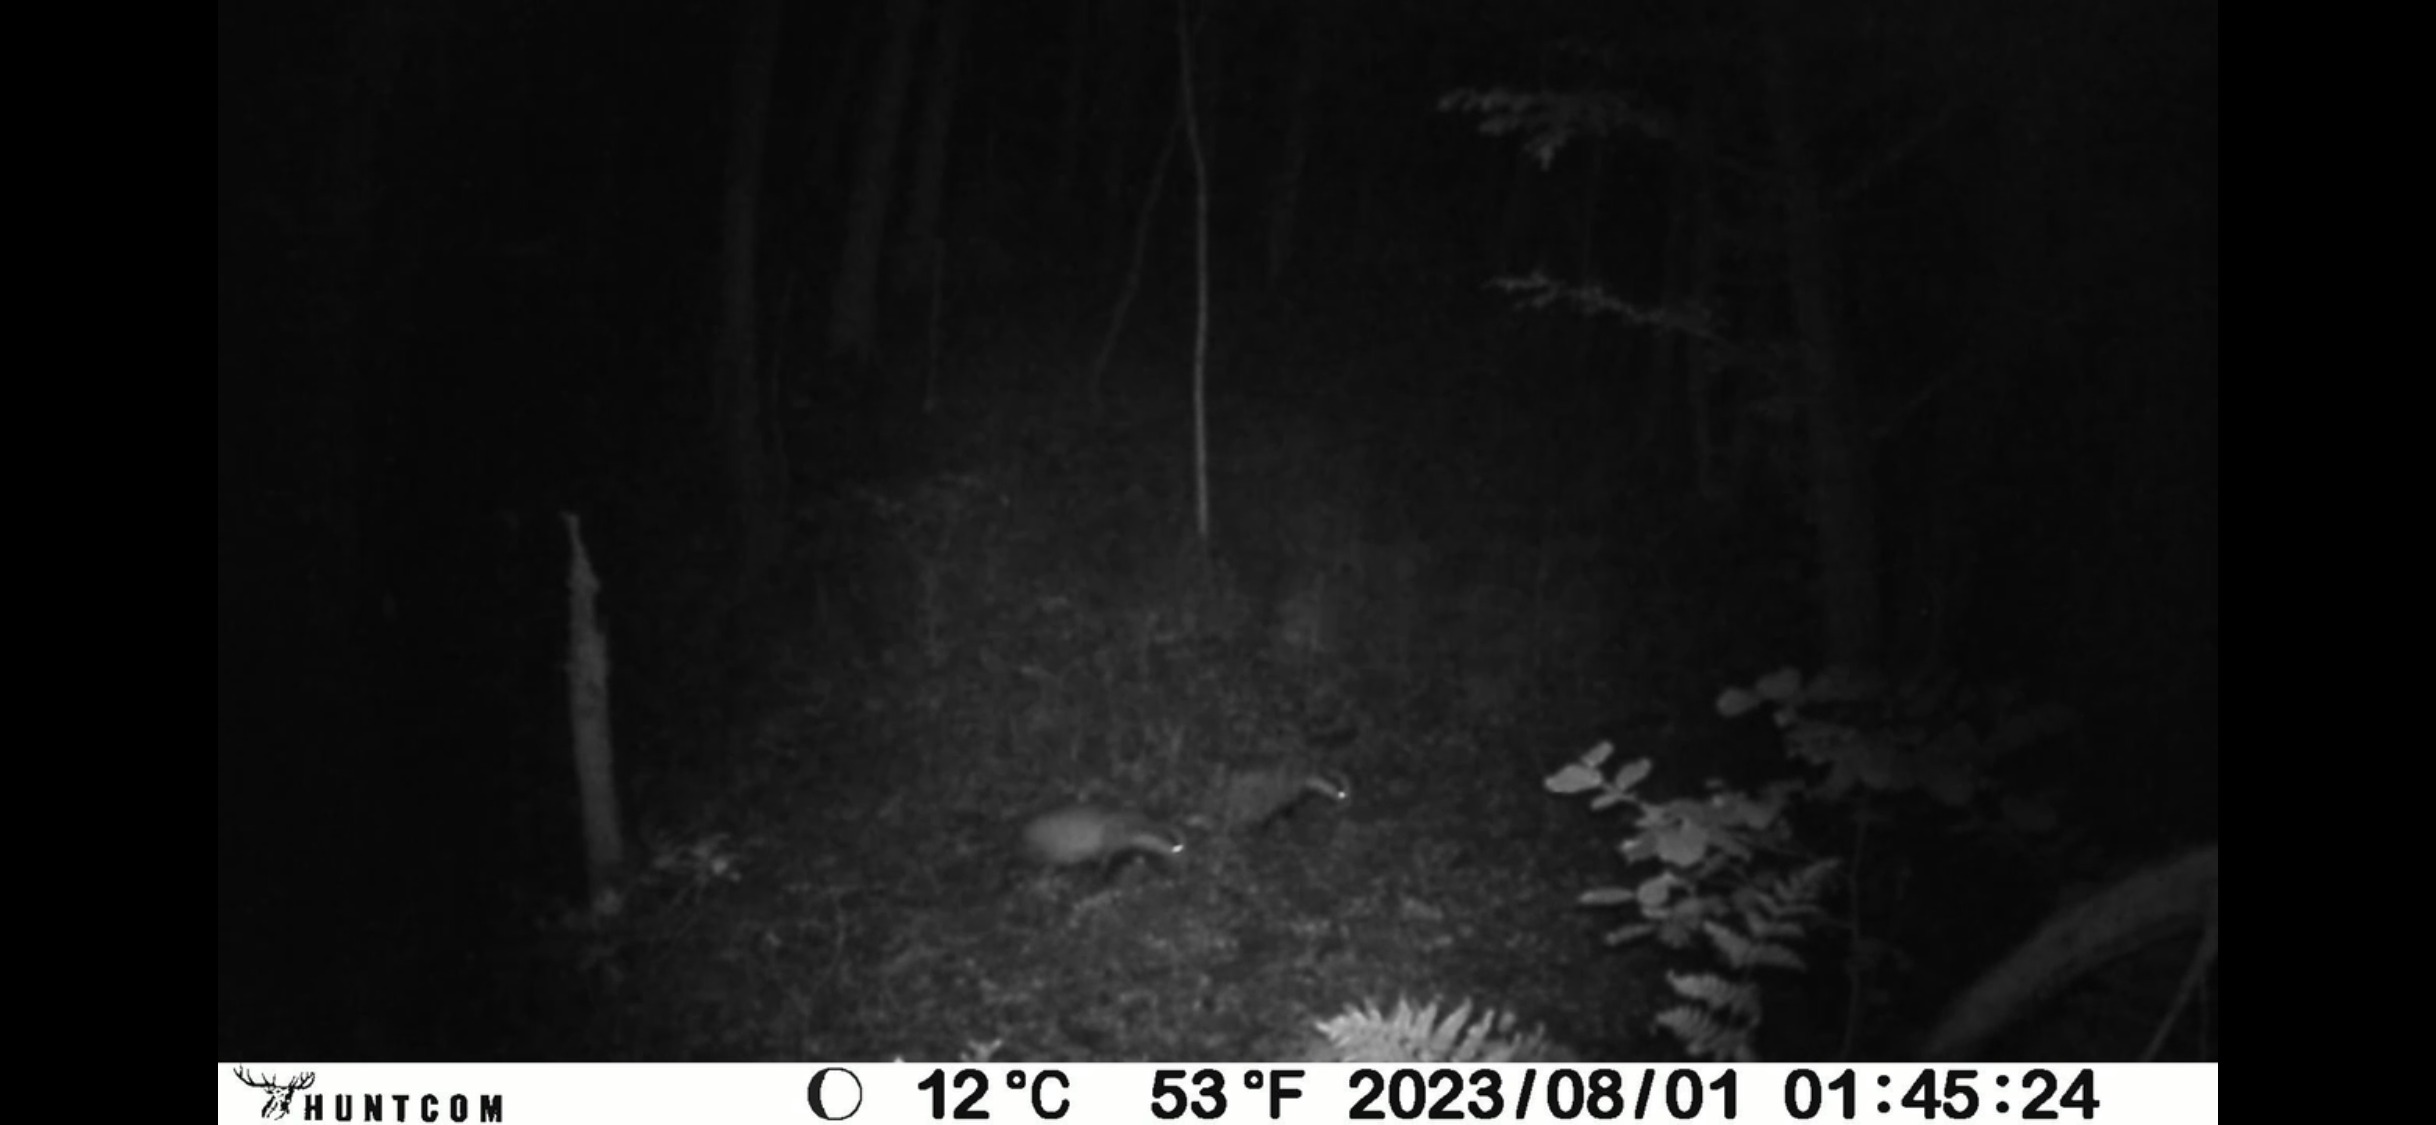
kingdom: Animalia
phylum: Chordata
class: Mammalia
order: Carnivora
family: Mustelidae
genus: Meles
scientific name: Meles meles
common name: Grævling
